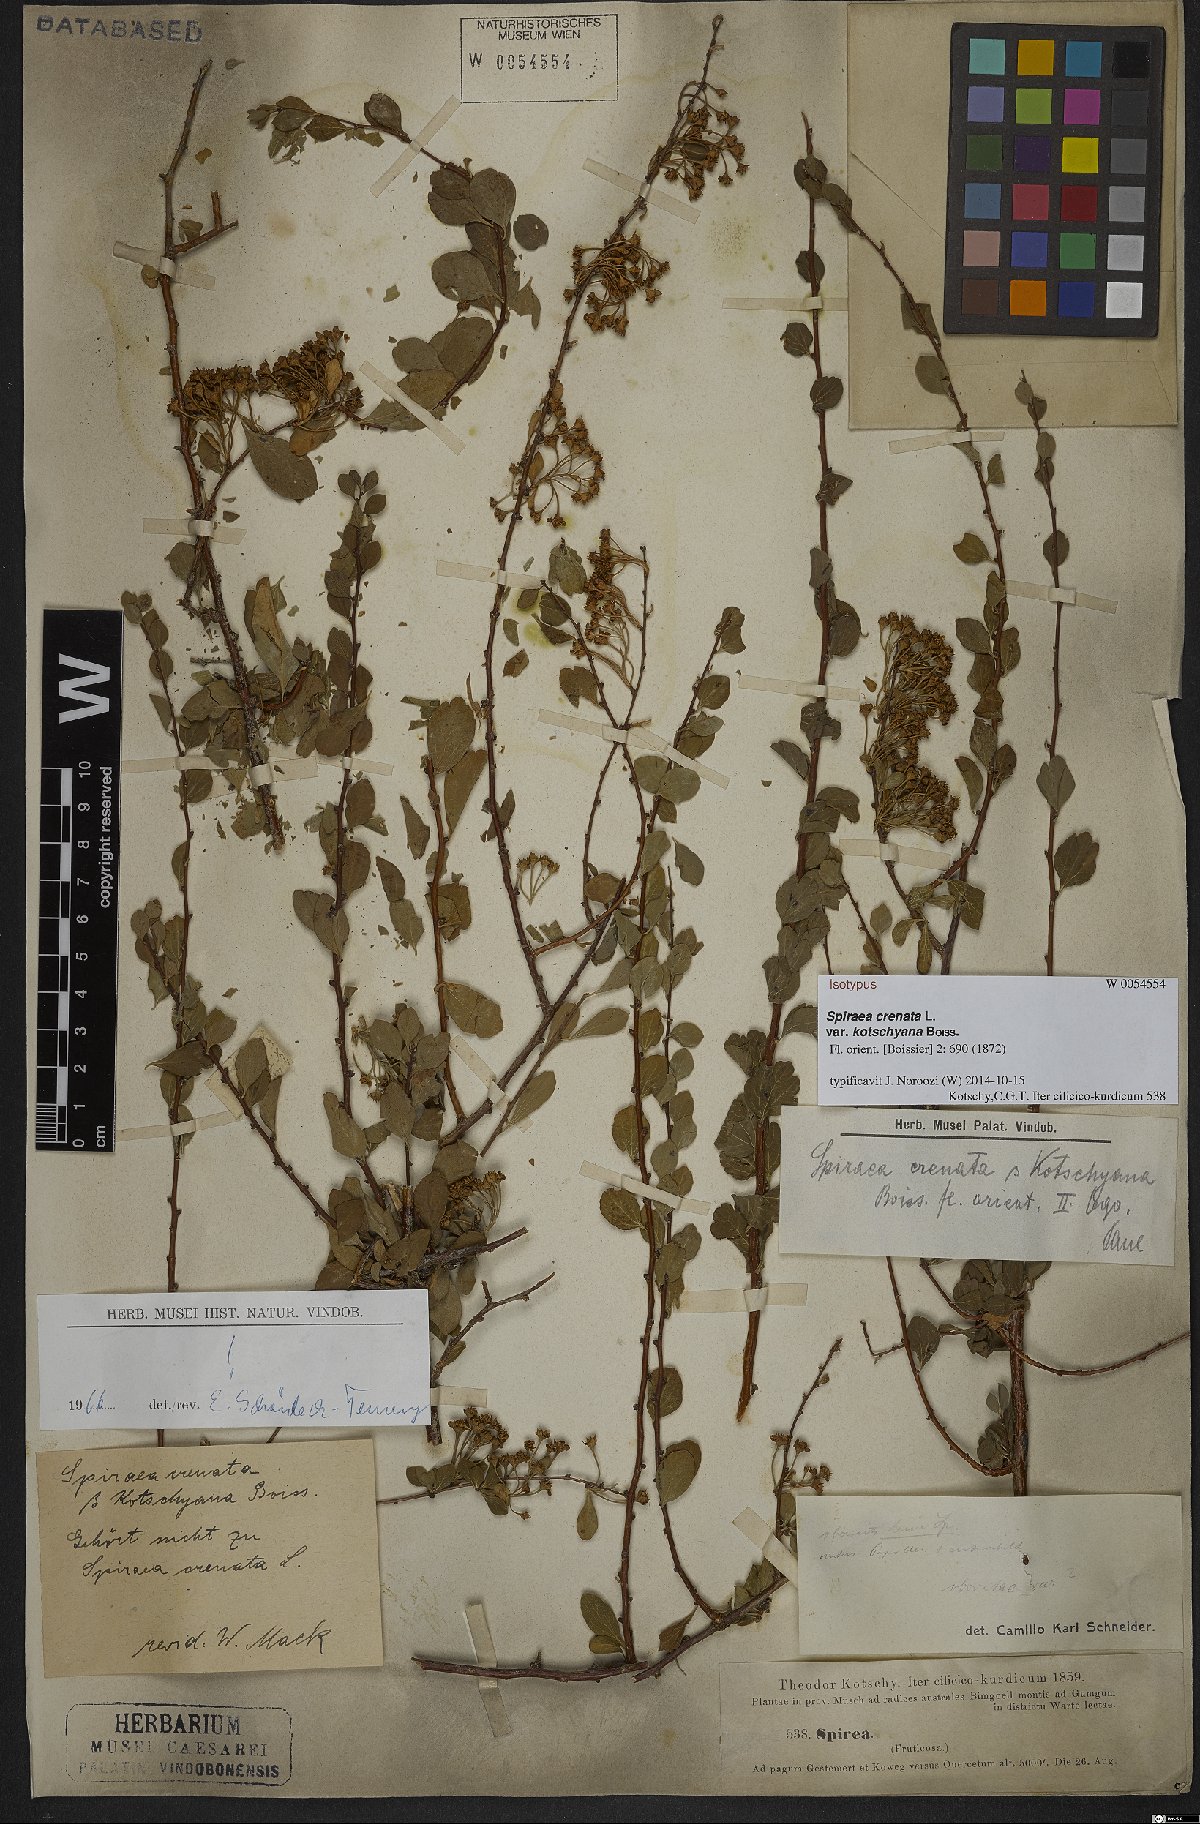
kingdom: Plantae
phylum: Tracheophyta
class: Magnoliopsida
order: Rosales
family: Rosaceae
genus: Spiraea
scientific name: Spiraea crenata
